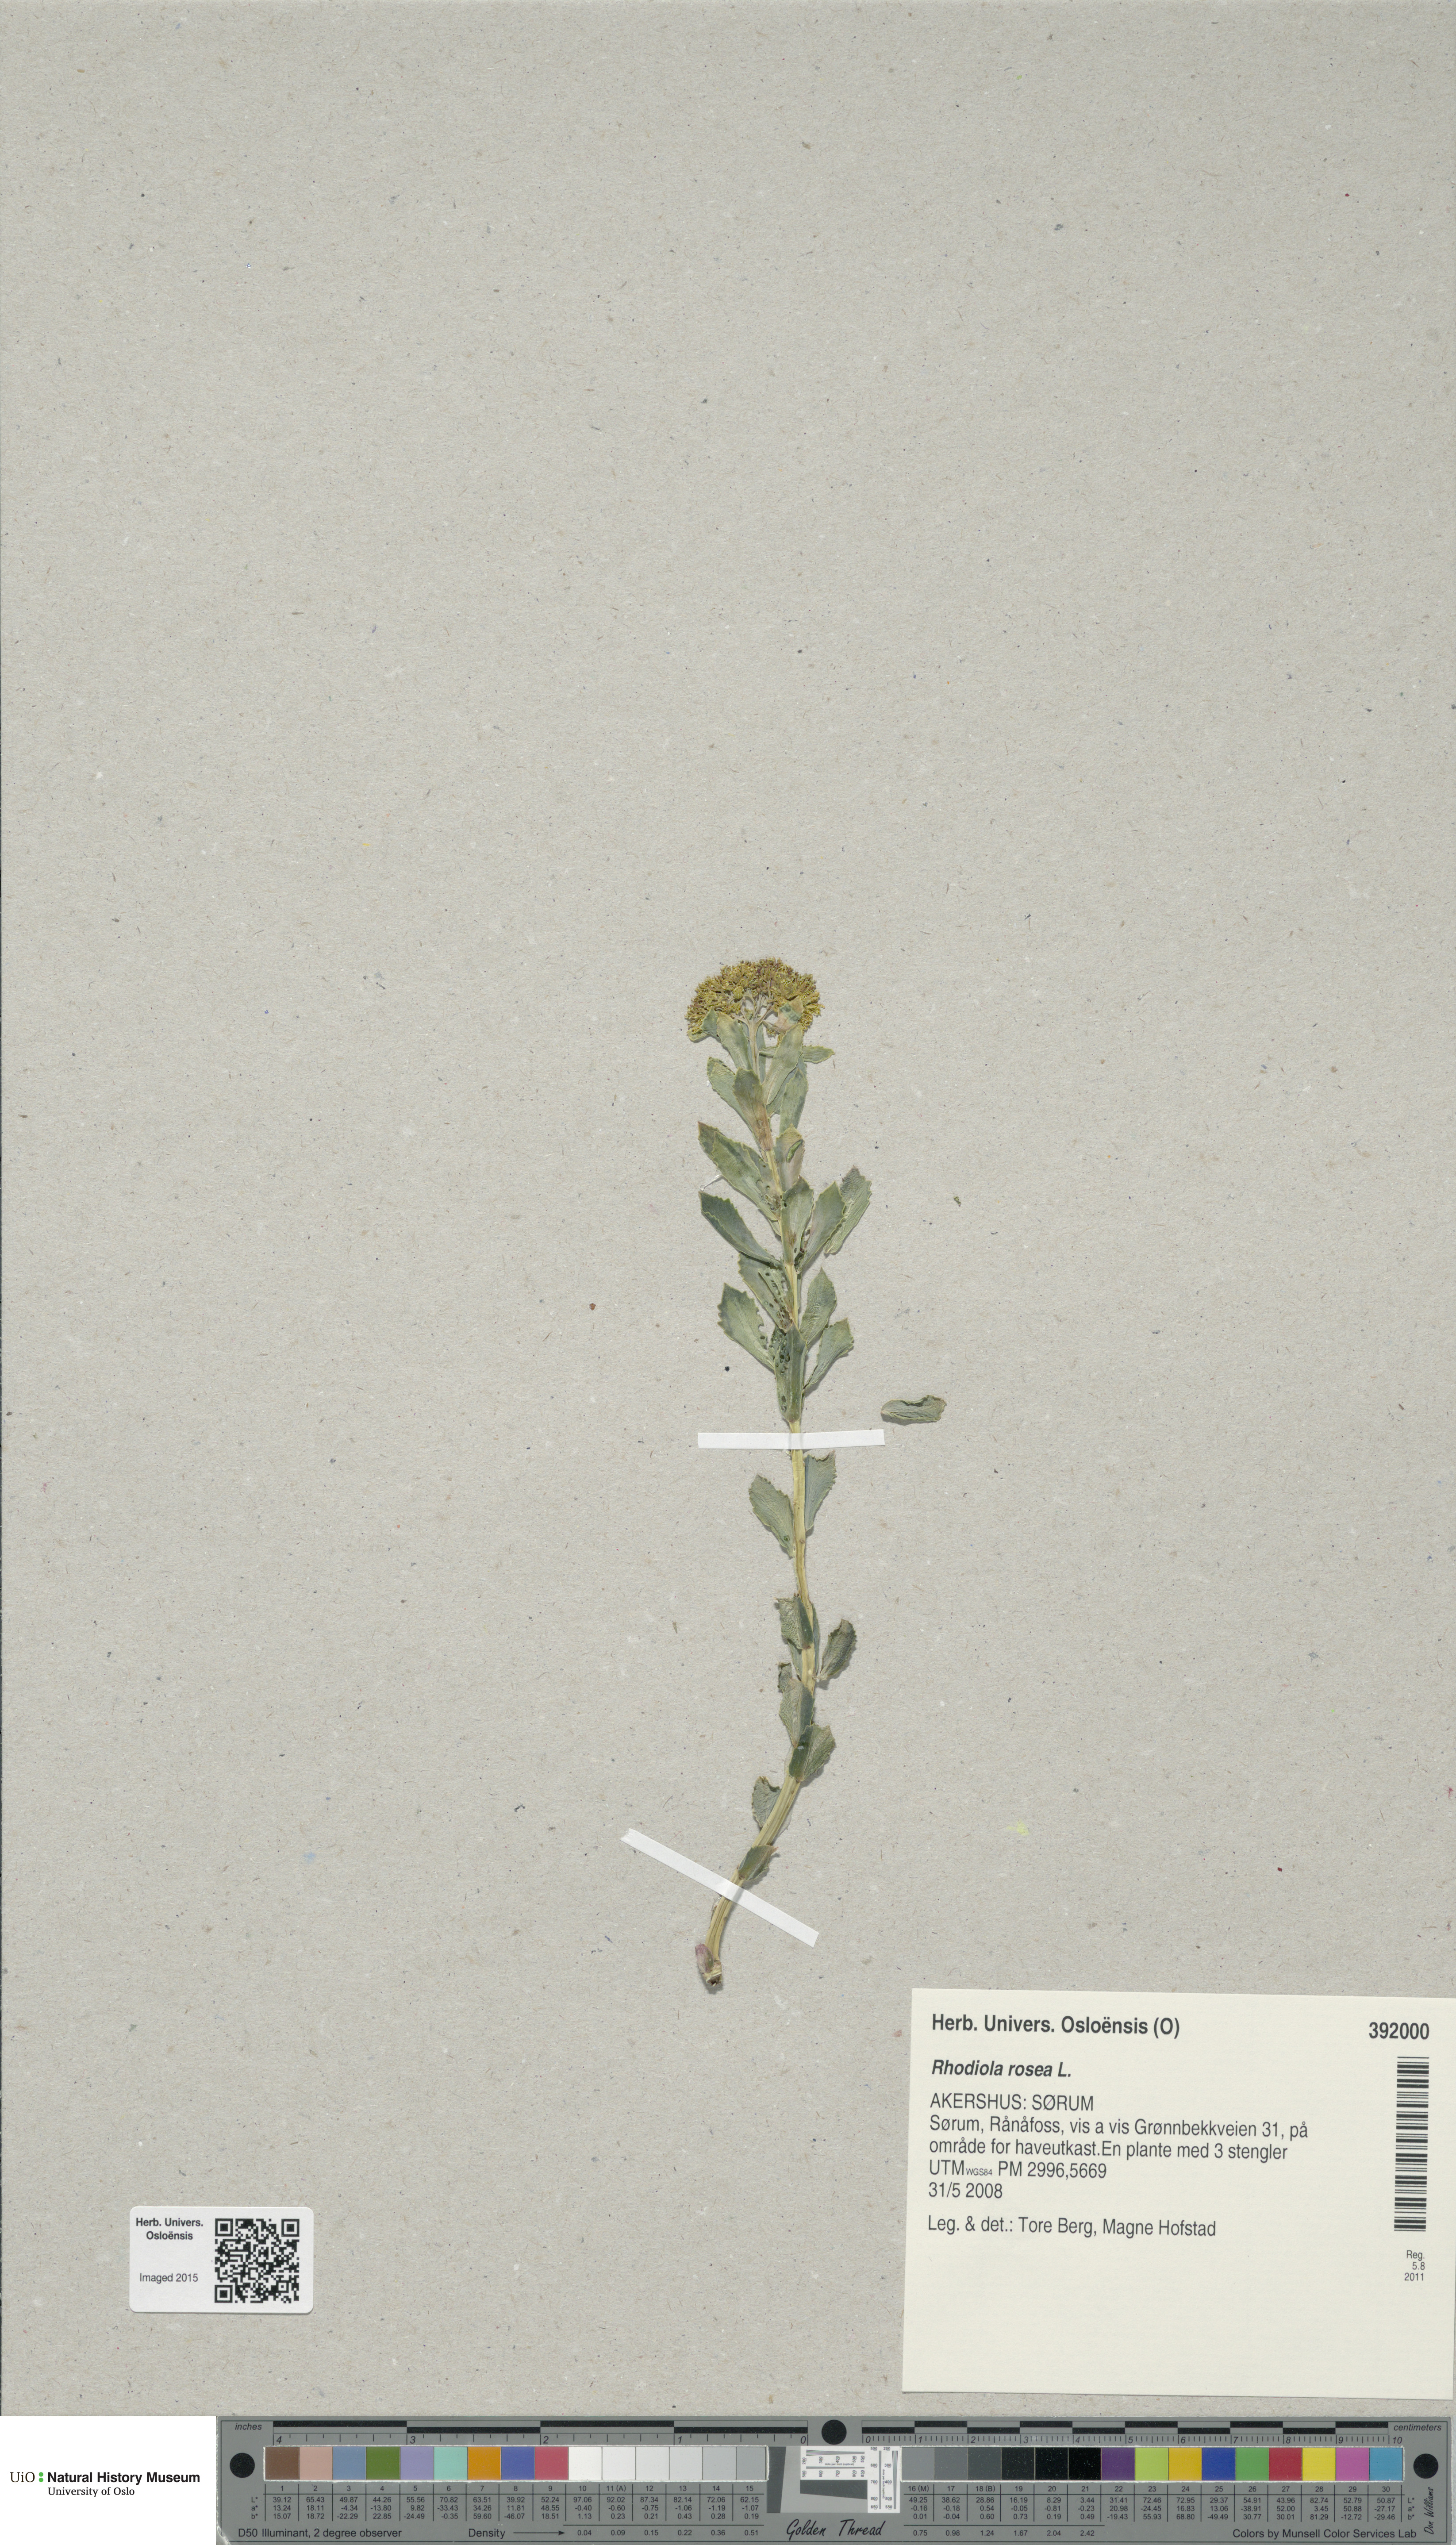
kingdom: Plantae
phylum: Tracheophyta
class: Magnoliopsida
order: Saxifragales
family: Crassulaceae
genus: Rhodiola
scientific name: Rhodiola rosea
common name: Roseroot
